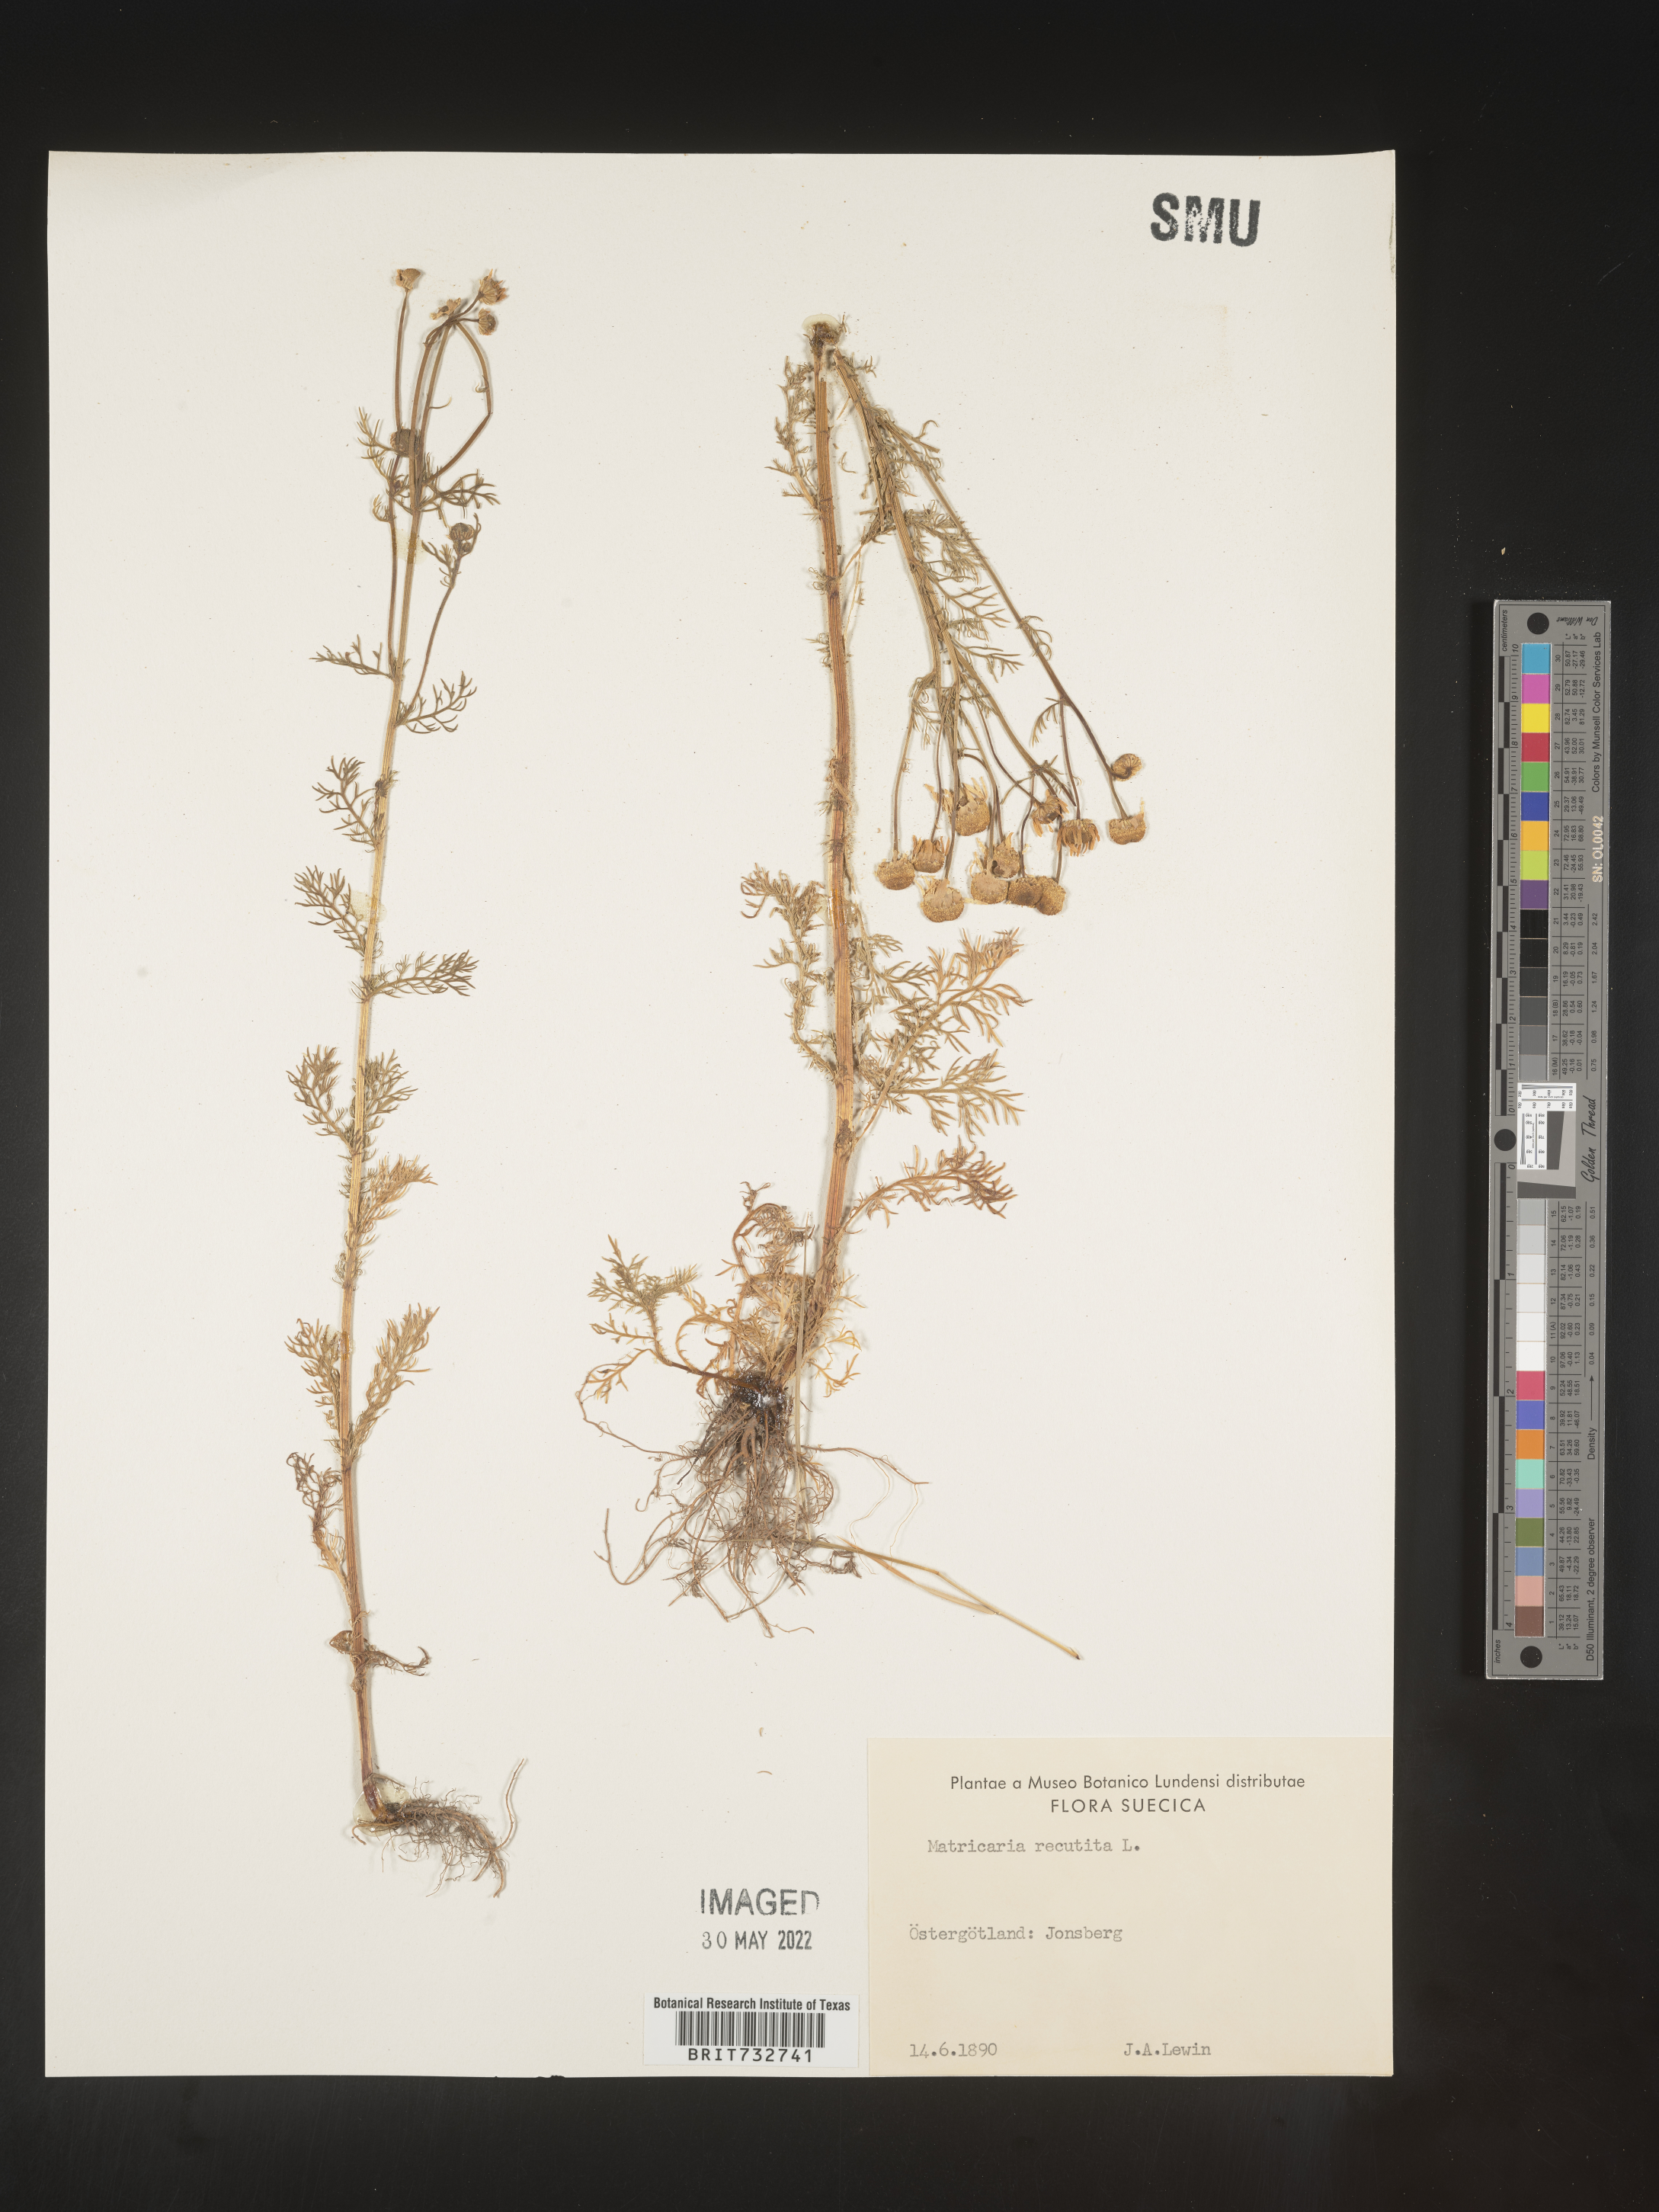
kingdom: Plantae
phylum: Tracheophyta
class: Magnoliopsida
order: Asterales
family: Asteraceae
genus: Matricaria
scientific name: Matricaria
